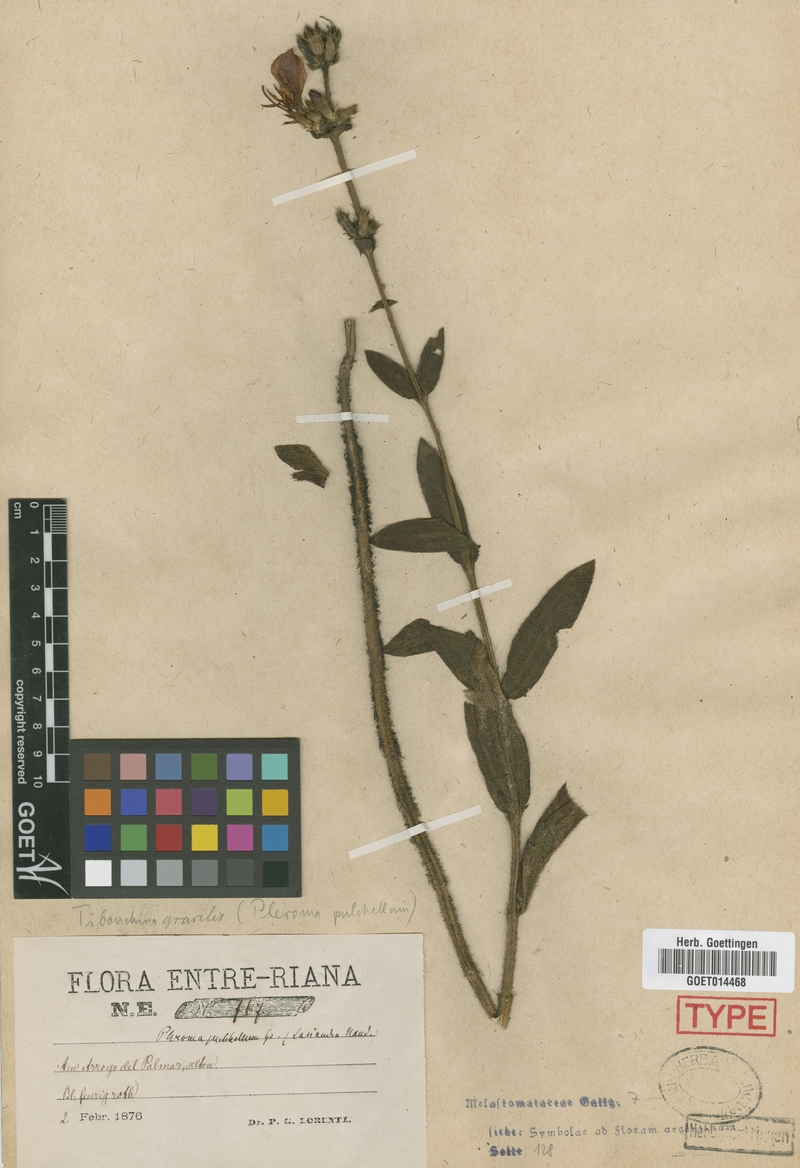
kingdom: Plantae
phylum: Tracheophyta
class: Magnoliopsida
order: Myrtales
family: Melastomataceae
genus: Chaetogastra
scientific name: Chaetogastra gracilis
